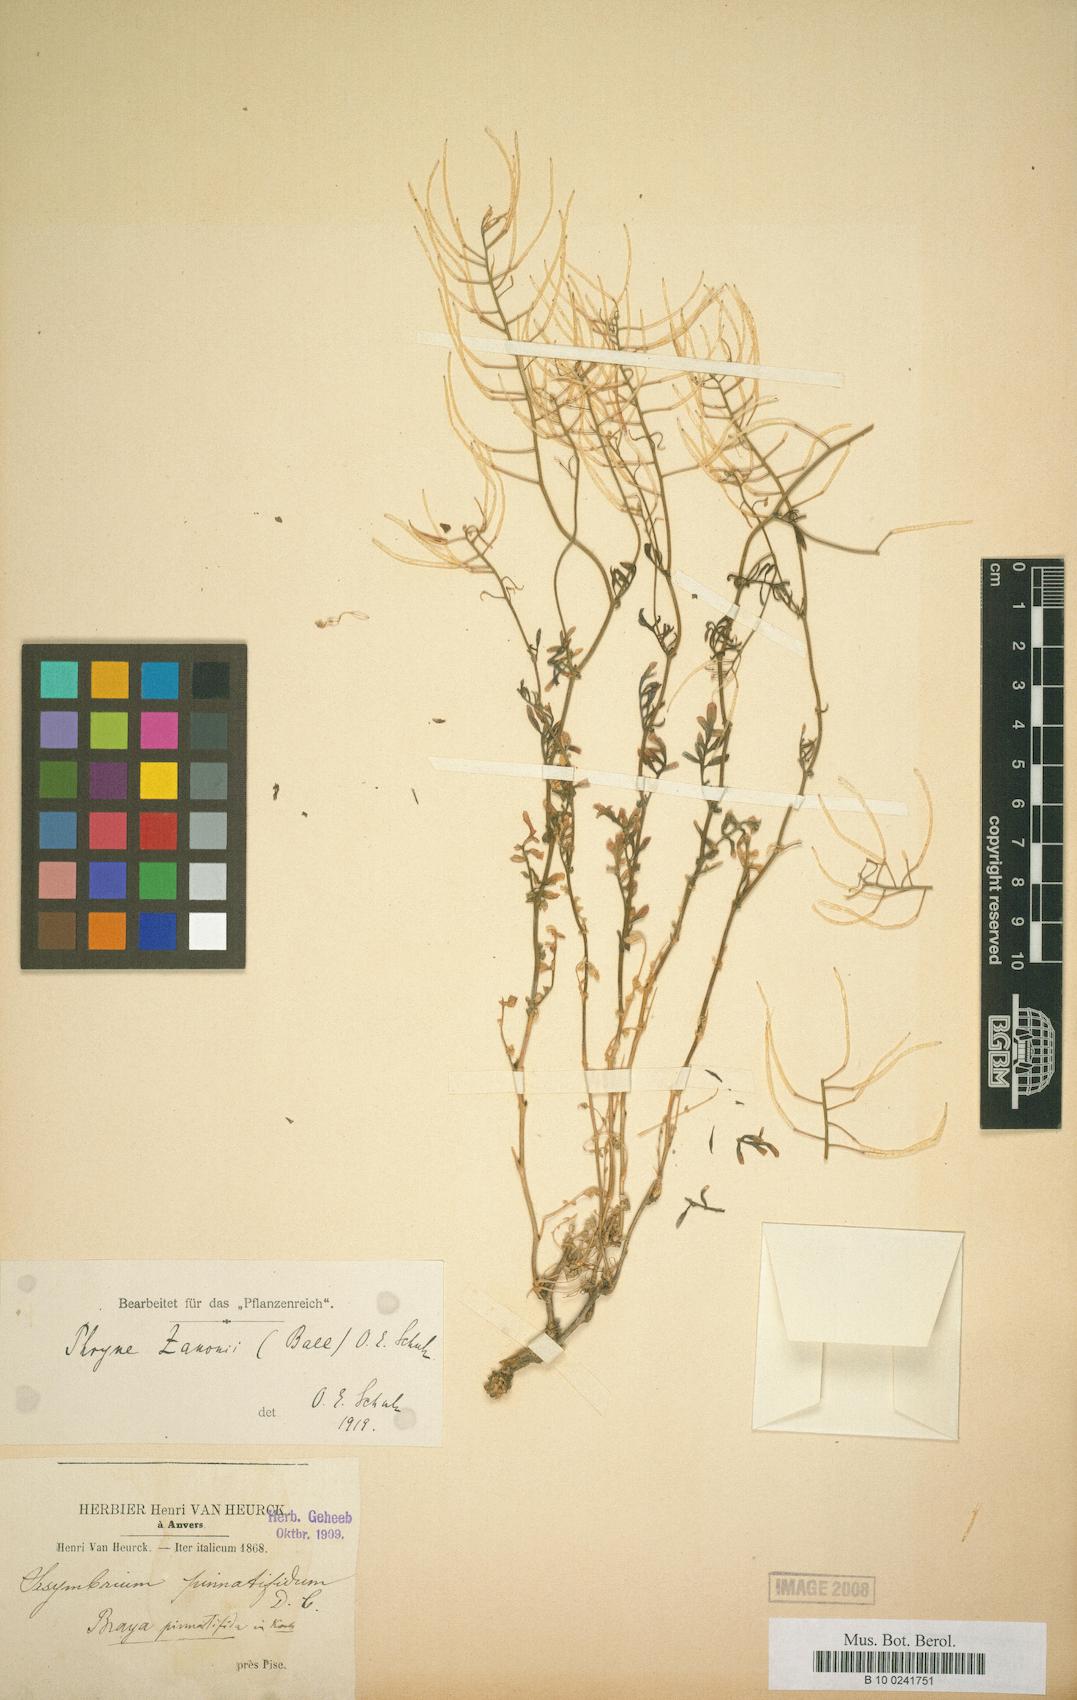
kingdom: Plantae
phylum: Tracheophyta
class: Magnoliopsida
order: Brassicales
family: Brassicaceae
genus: Murbeckiella
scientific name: Murbeckiella zanonii
